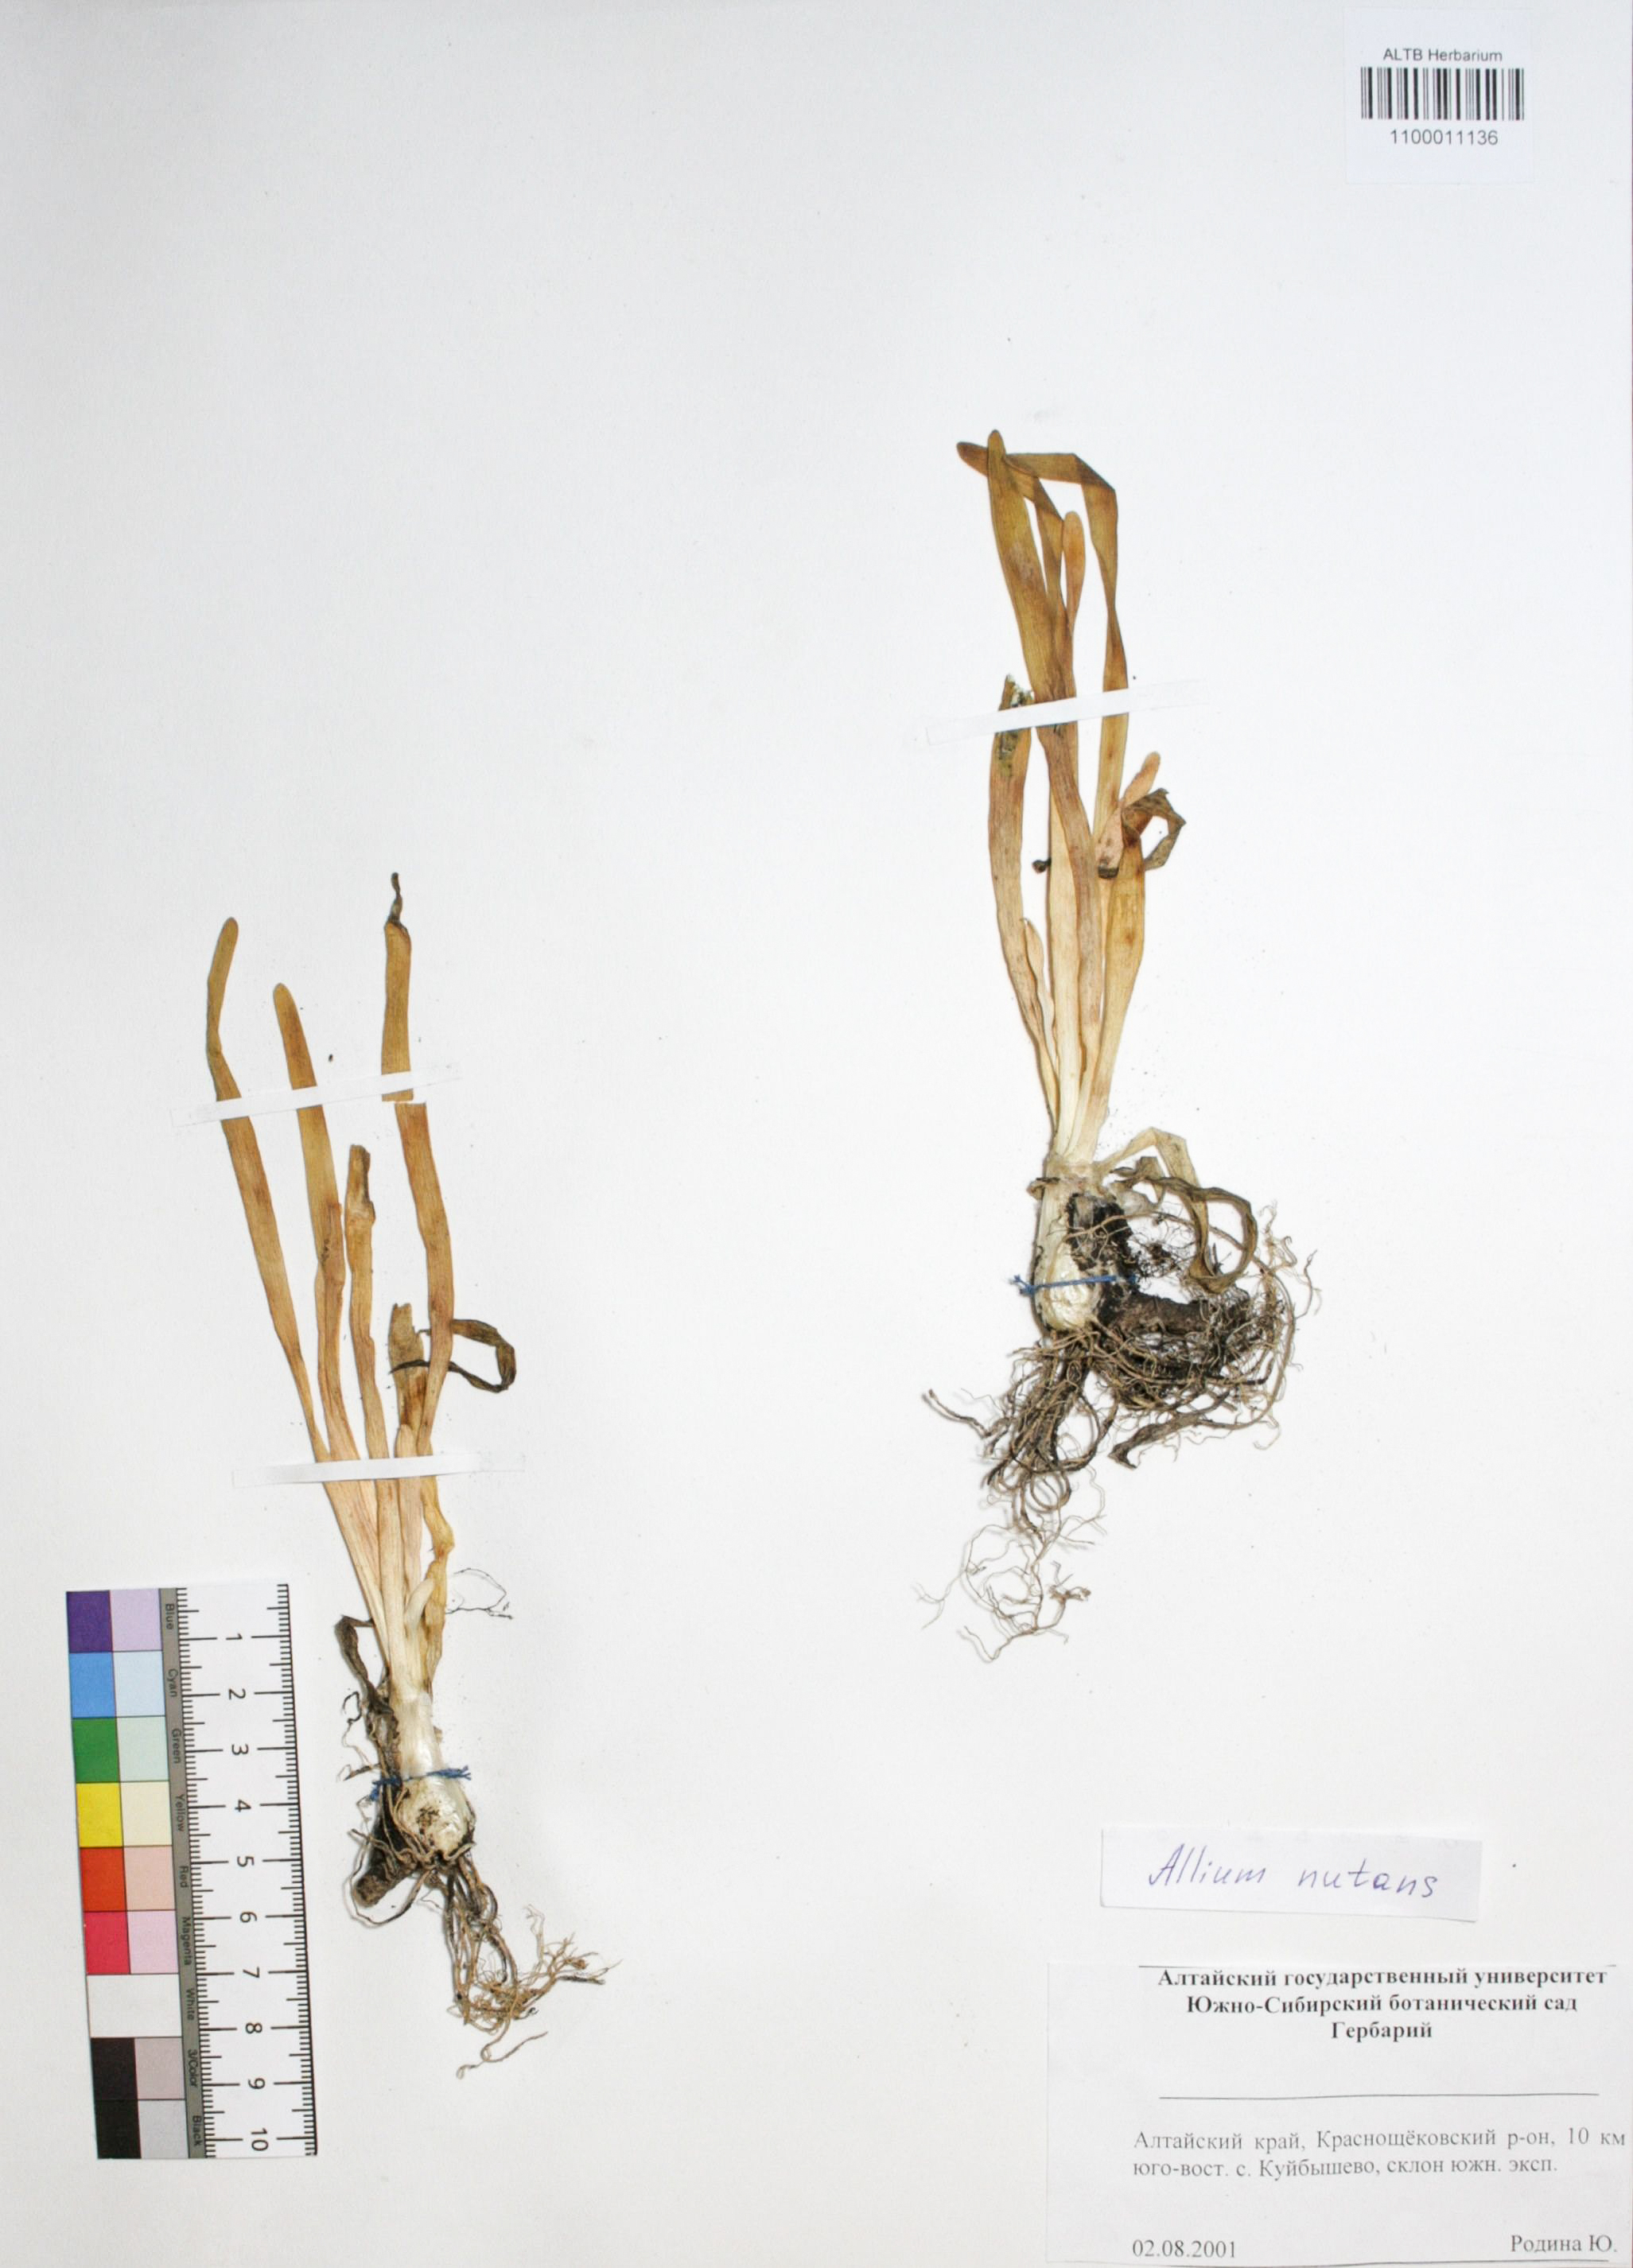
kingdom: Plantae
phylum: Tracheophyta
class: Liliopsida
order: Asparagales
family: Amaryllidaceae
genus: Allium
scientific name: Allium nutans
